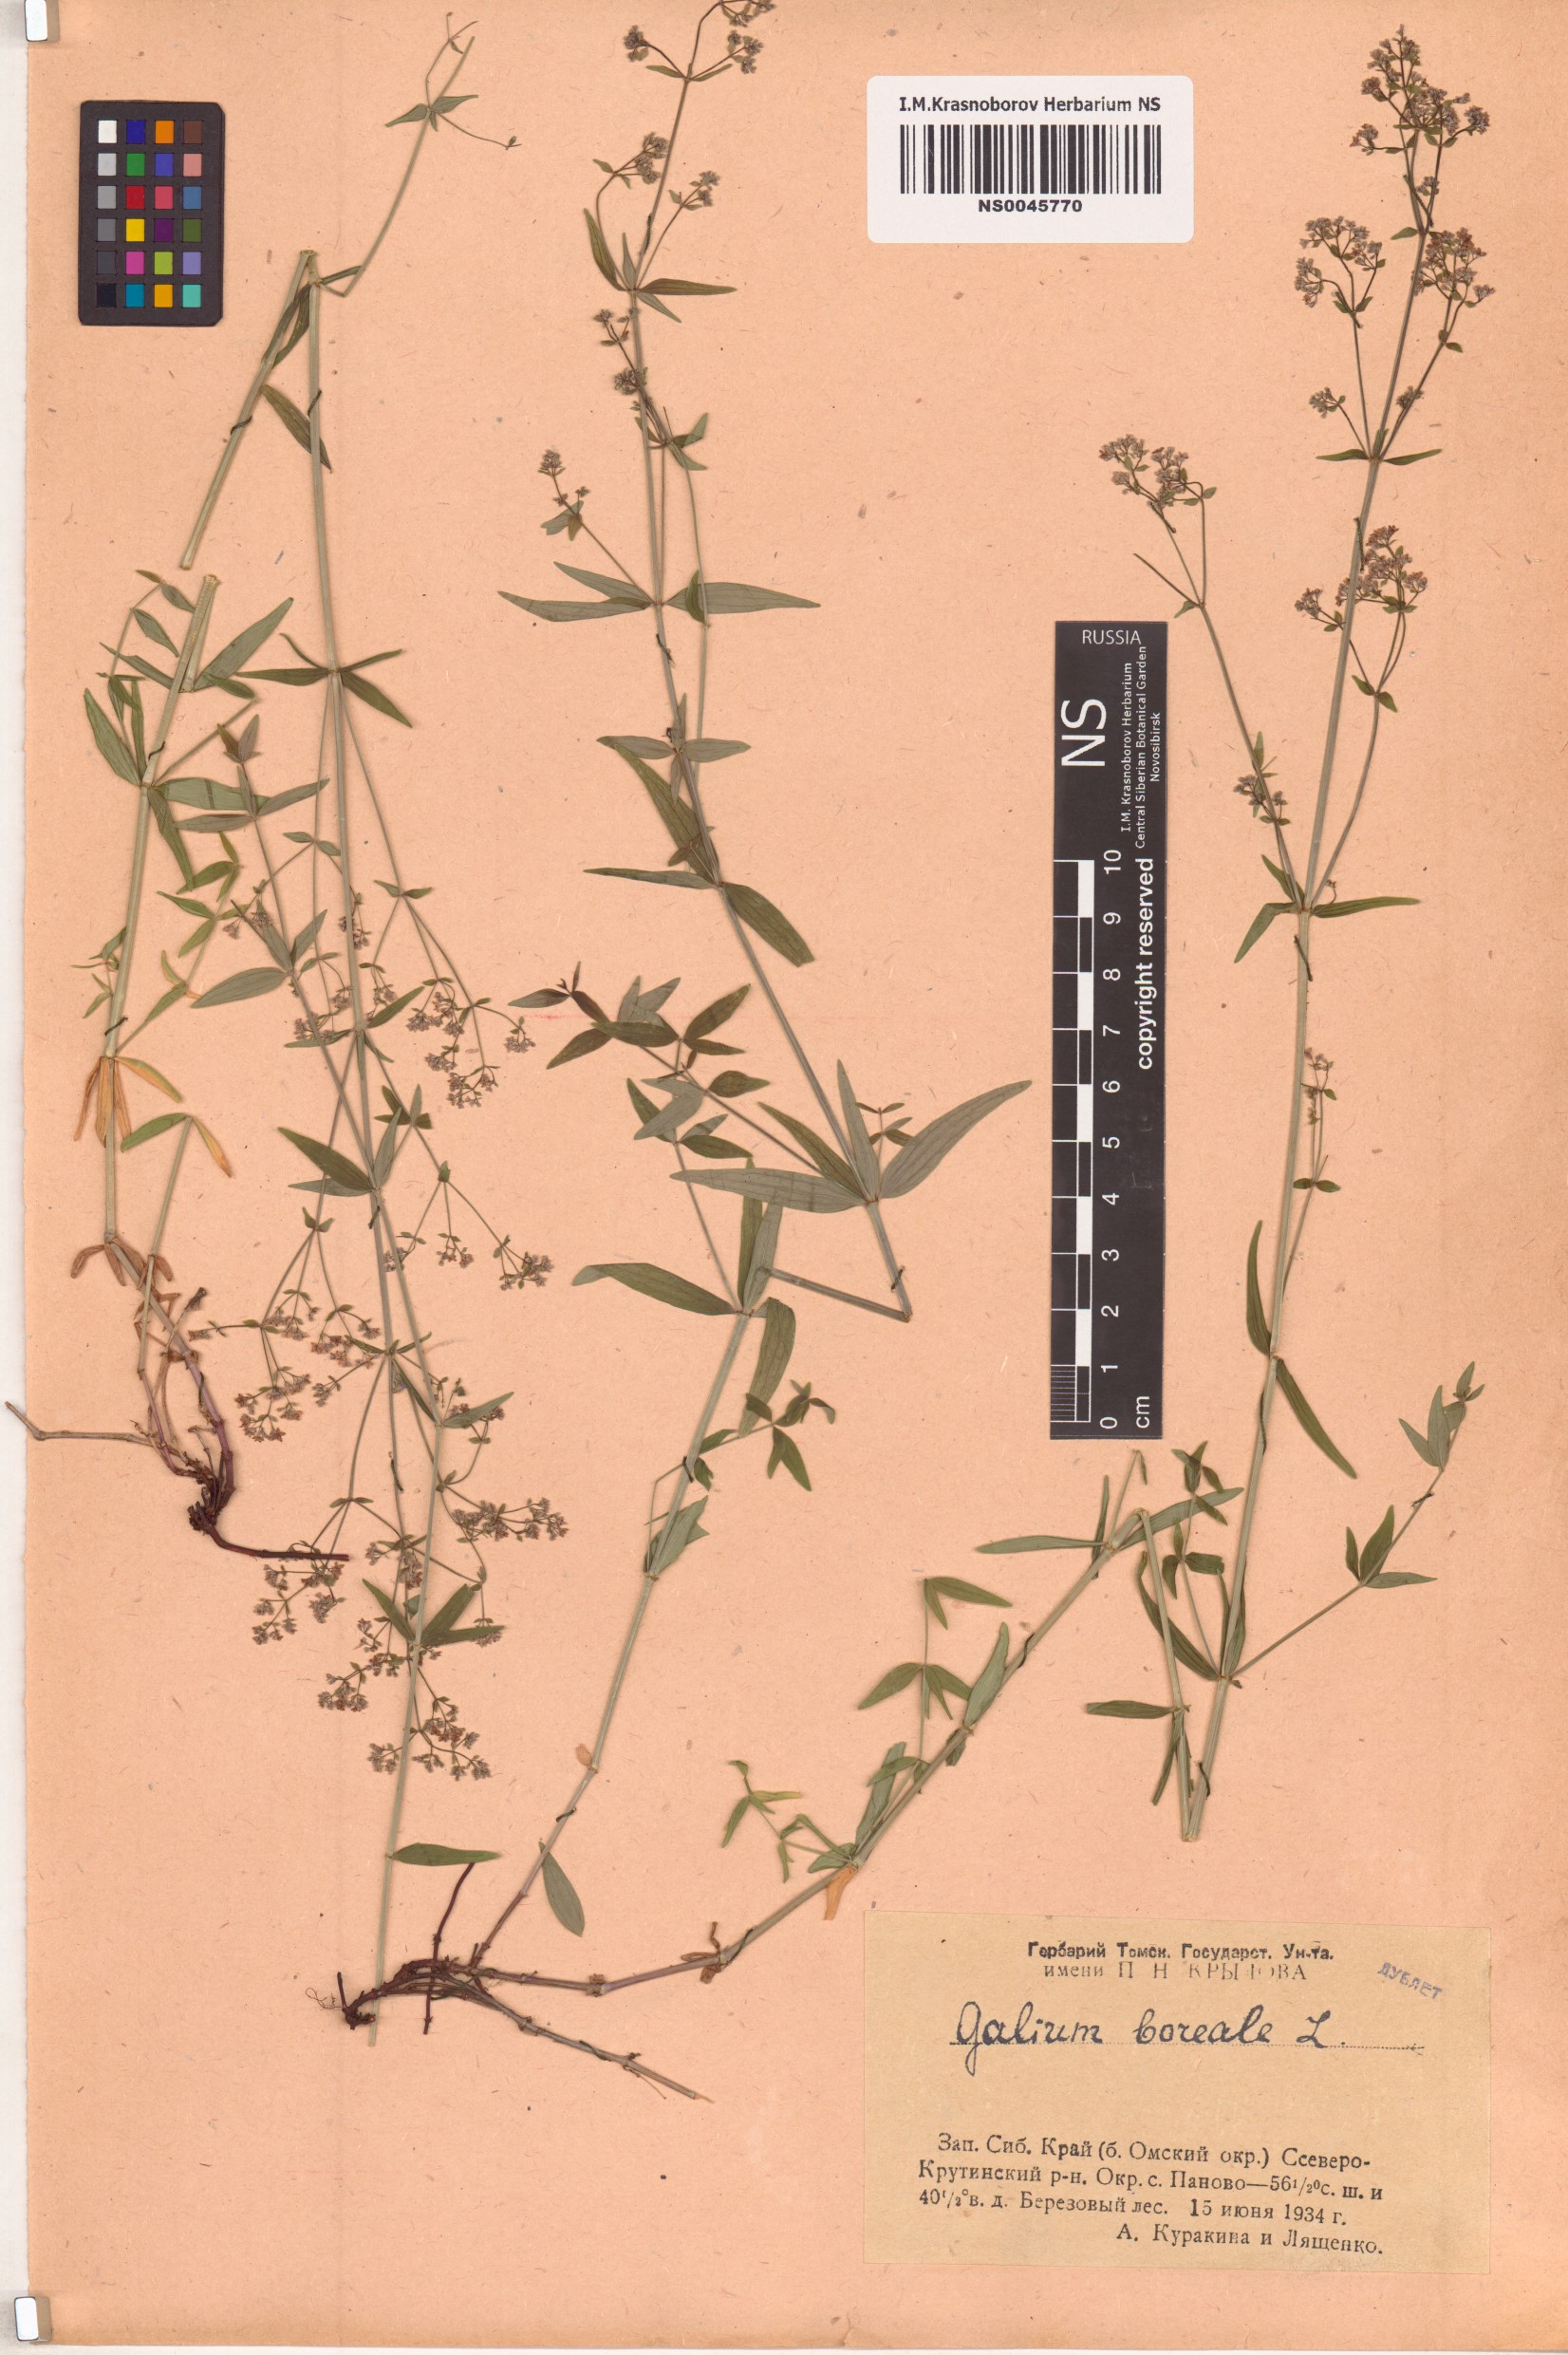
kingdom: Plantae
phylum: Tracheophyta
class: Magnoliopsida
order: Gentianales
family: Rubiaceae
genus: Galium
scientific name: Galium boreale
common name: Northern bedstraw
